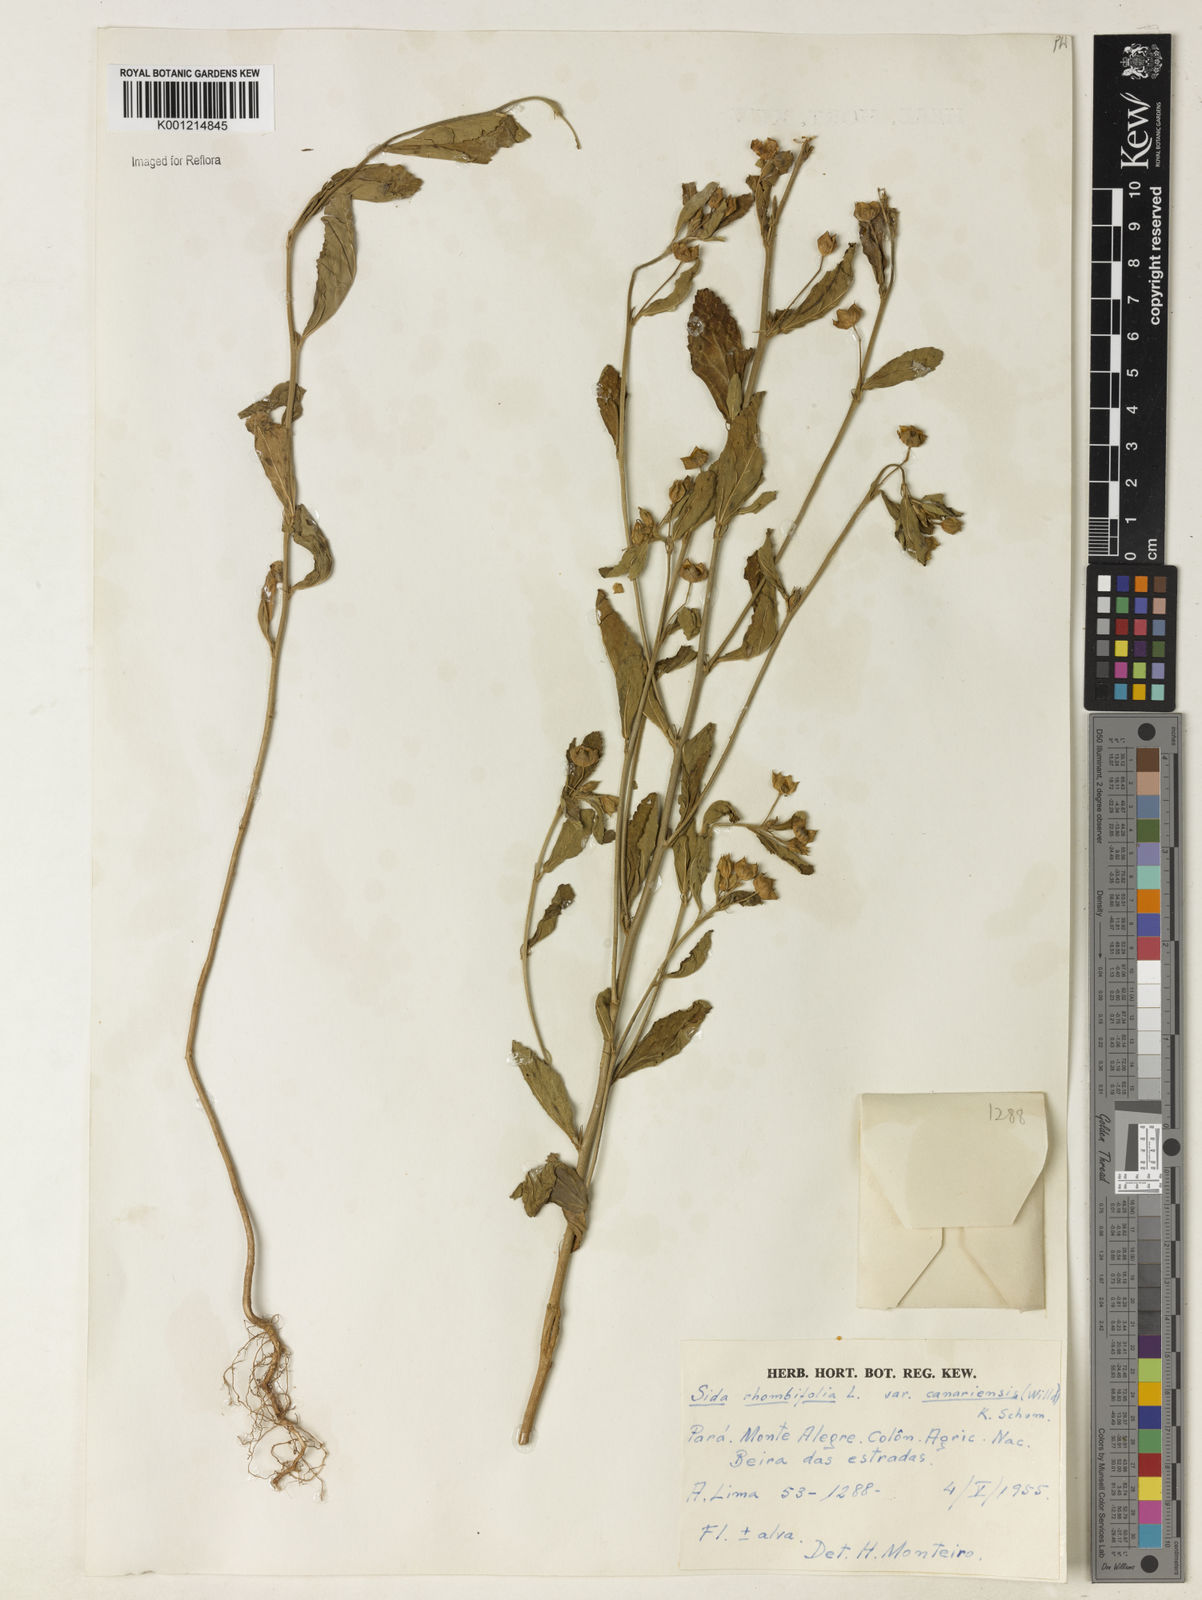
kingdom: Plantae
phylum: Tracheophyta
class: Magnoliopsida
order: Malvales
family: Malvaceae
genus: Sida
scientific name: Sida rhombifolia
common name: Queensland-hemp
